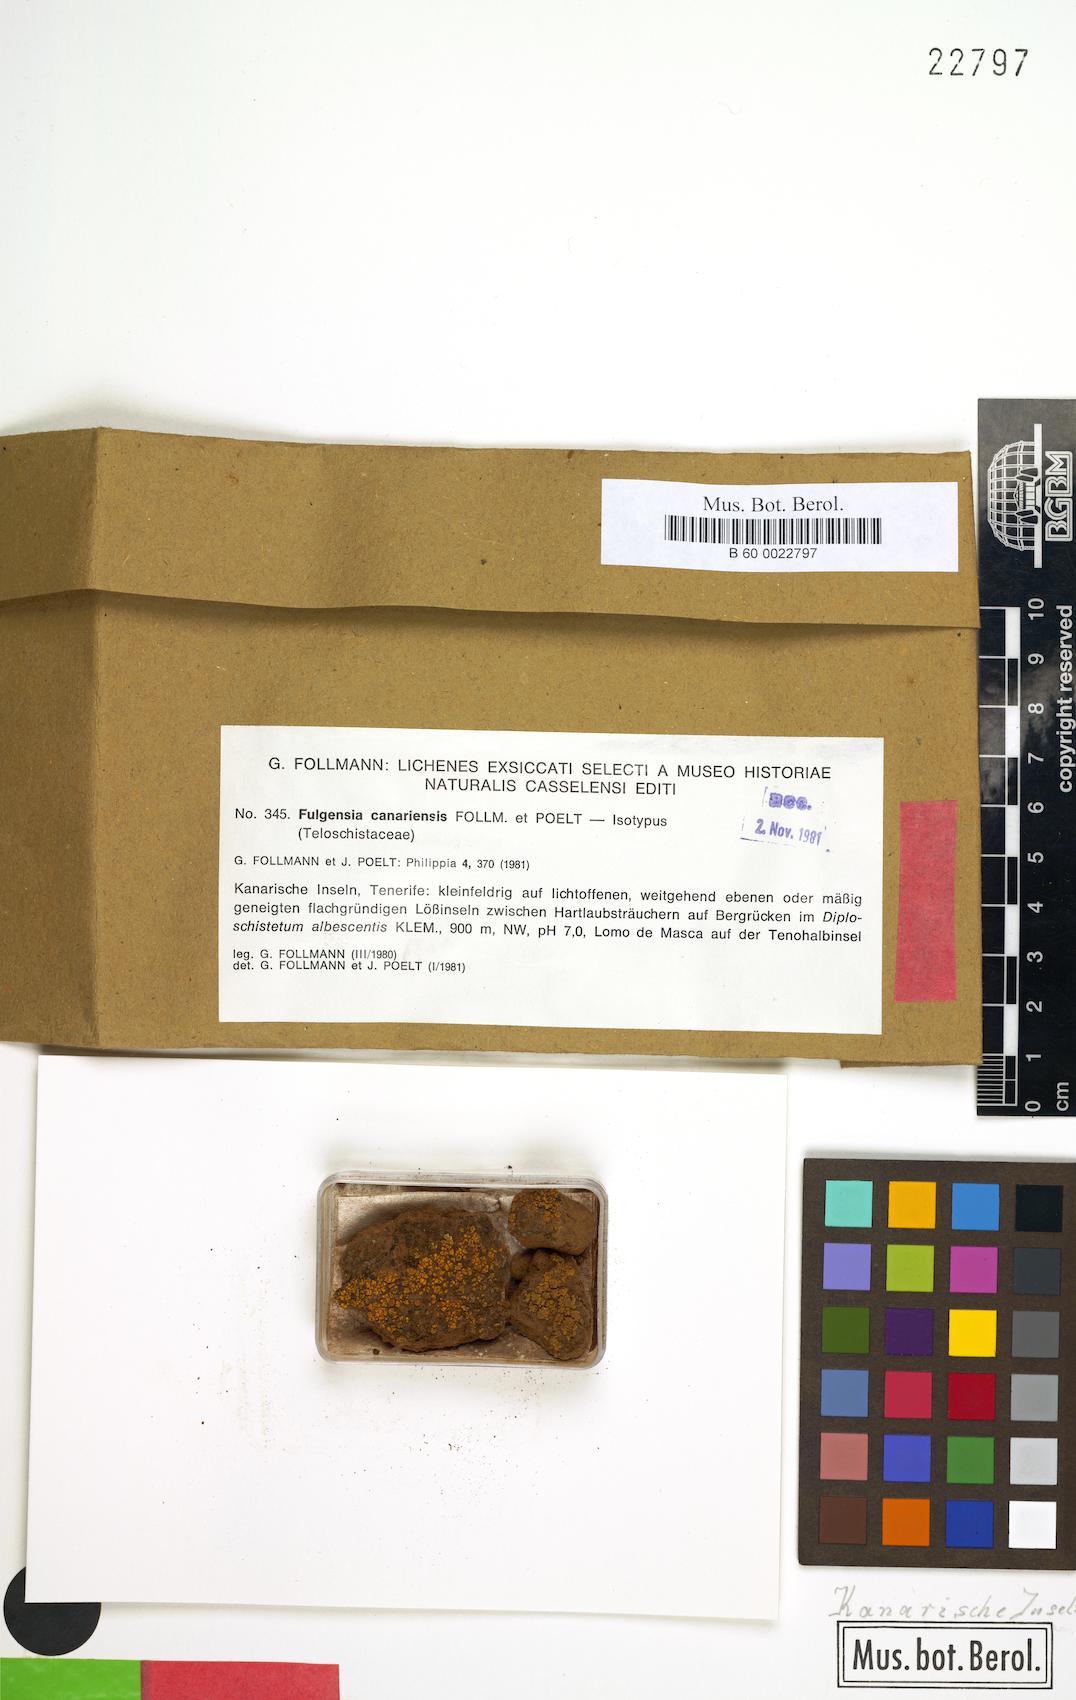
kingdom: Fungi
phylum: Ascomycota
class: Lecanoromycetes
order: Teloschistales
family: Teloschistaceae
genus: Gyalolechia
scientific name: Gyalolechia canariensis
